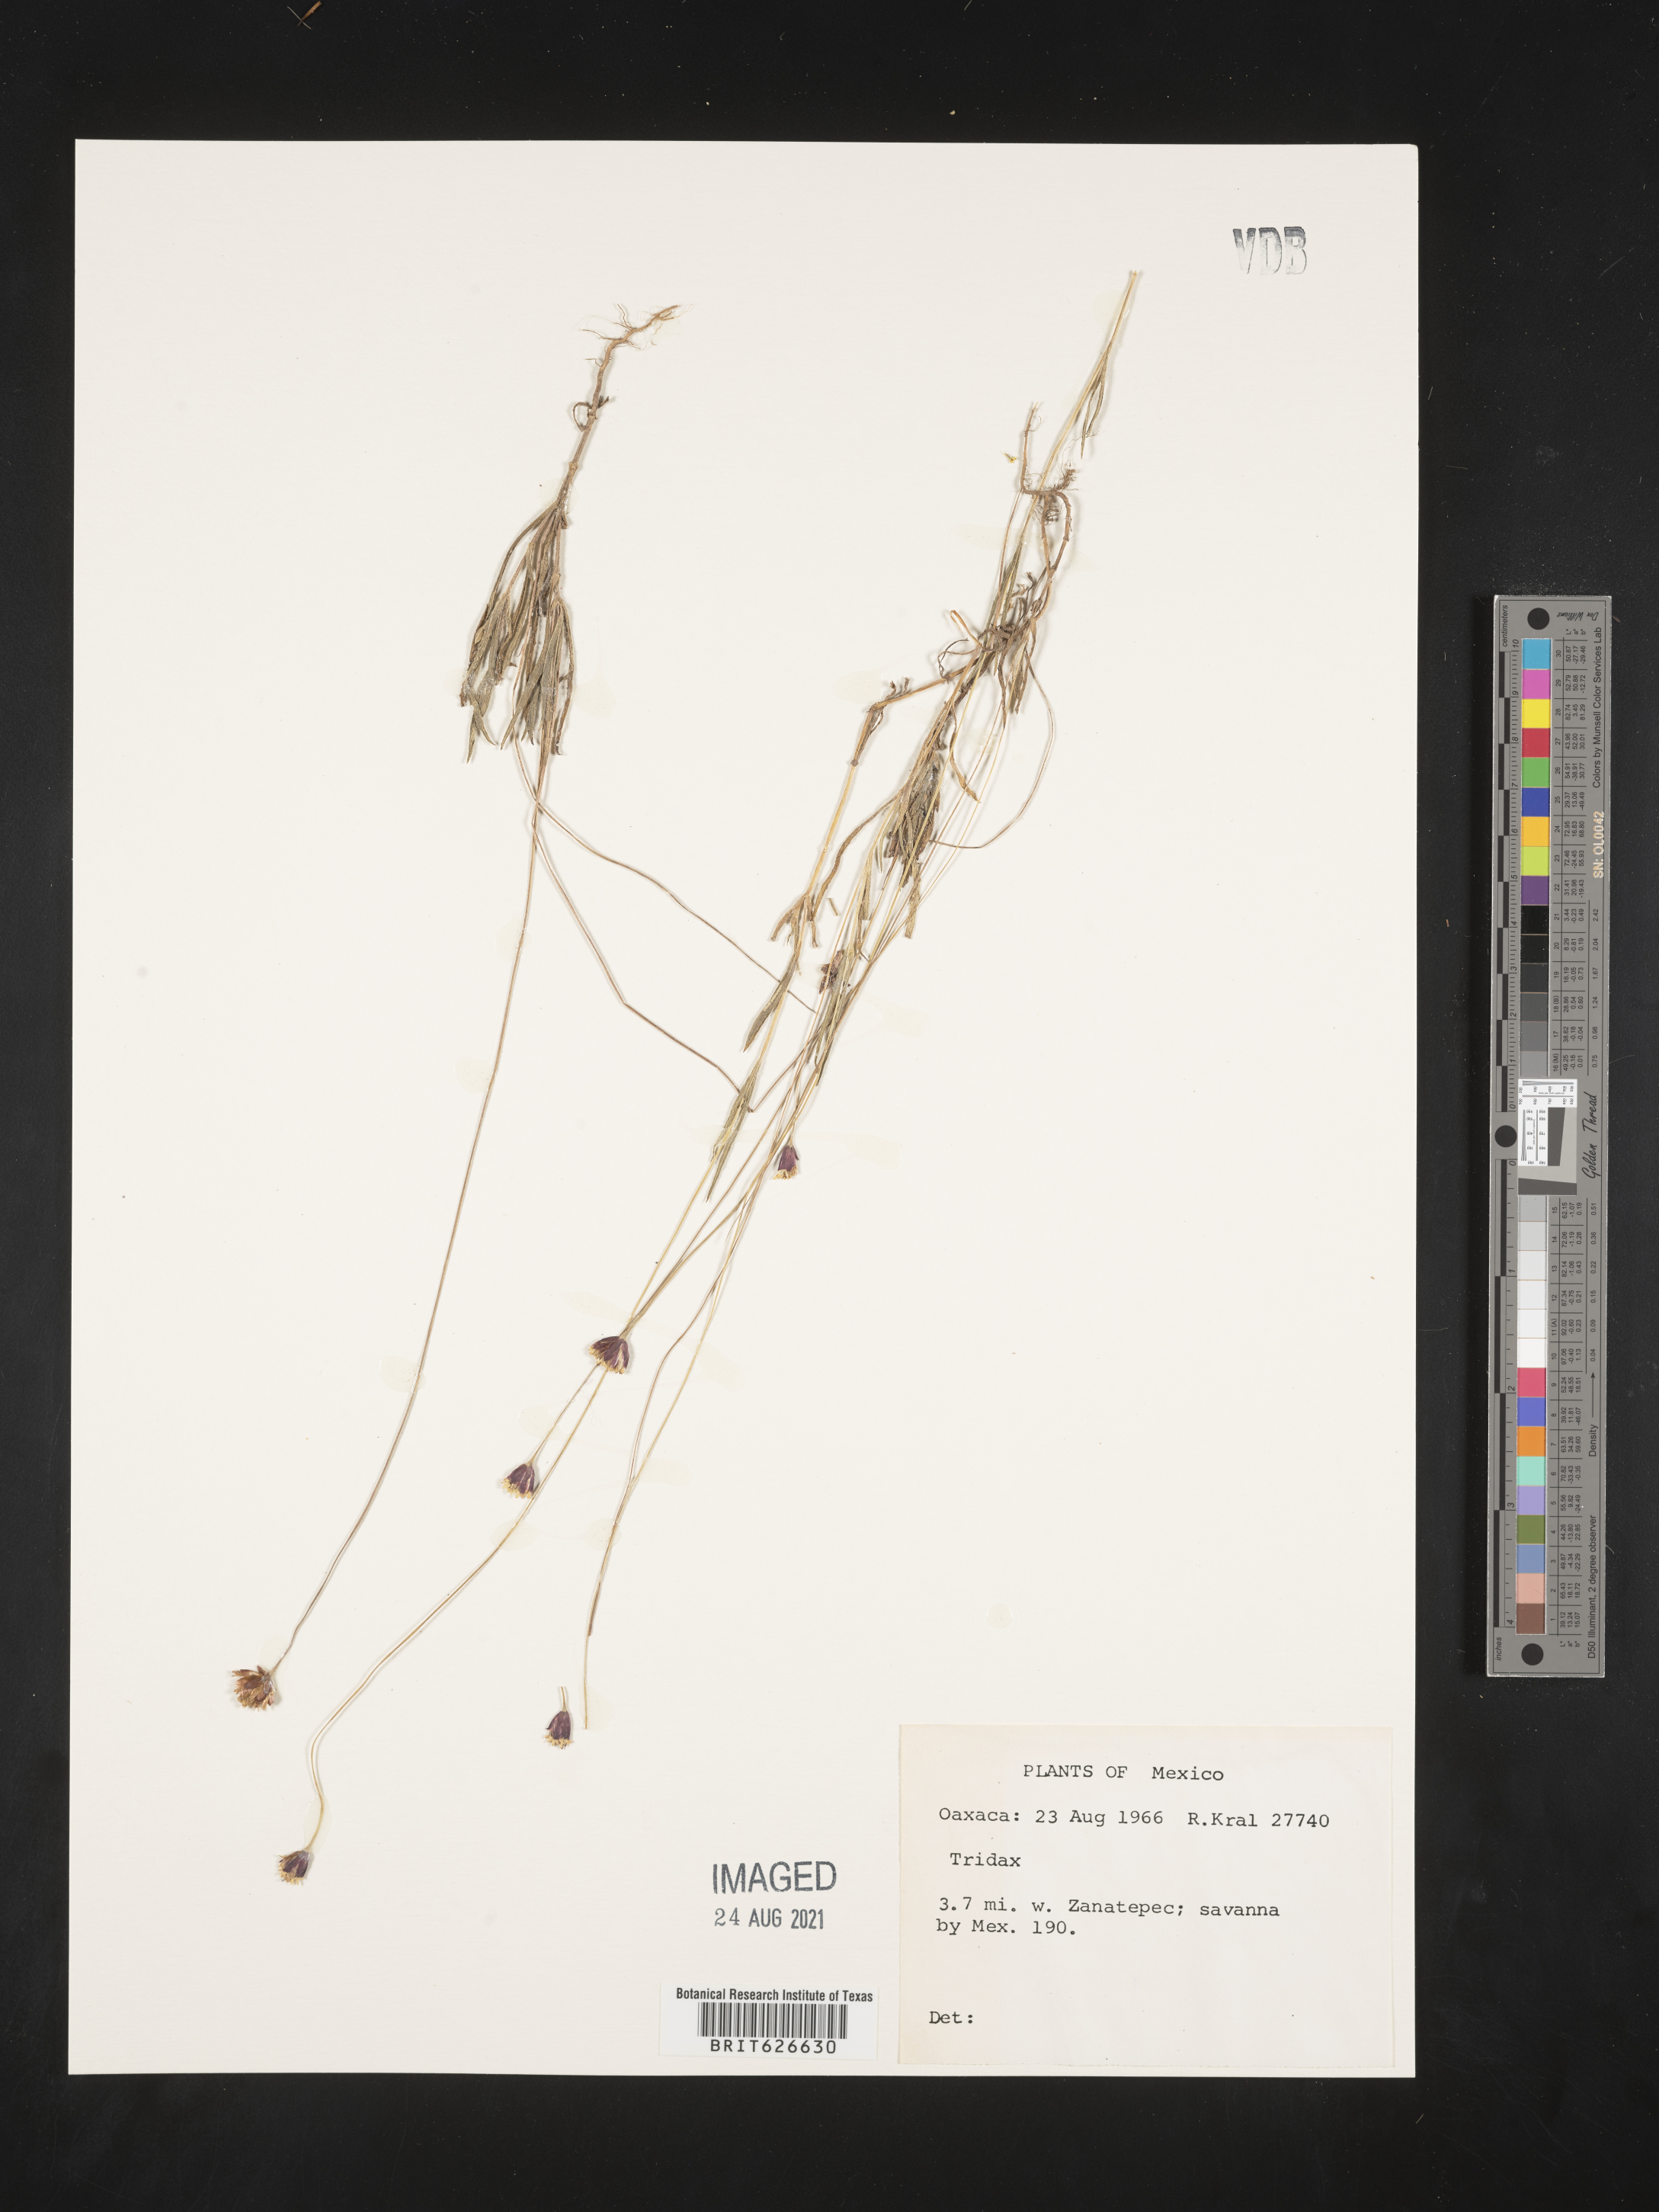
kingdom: Plantae
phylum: Tracheophyta
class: Magnoliopsida
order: Asterales
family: Asteraceae
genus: Tridax
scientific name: Tridax
